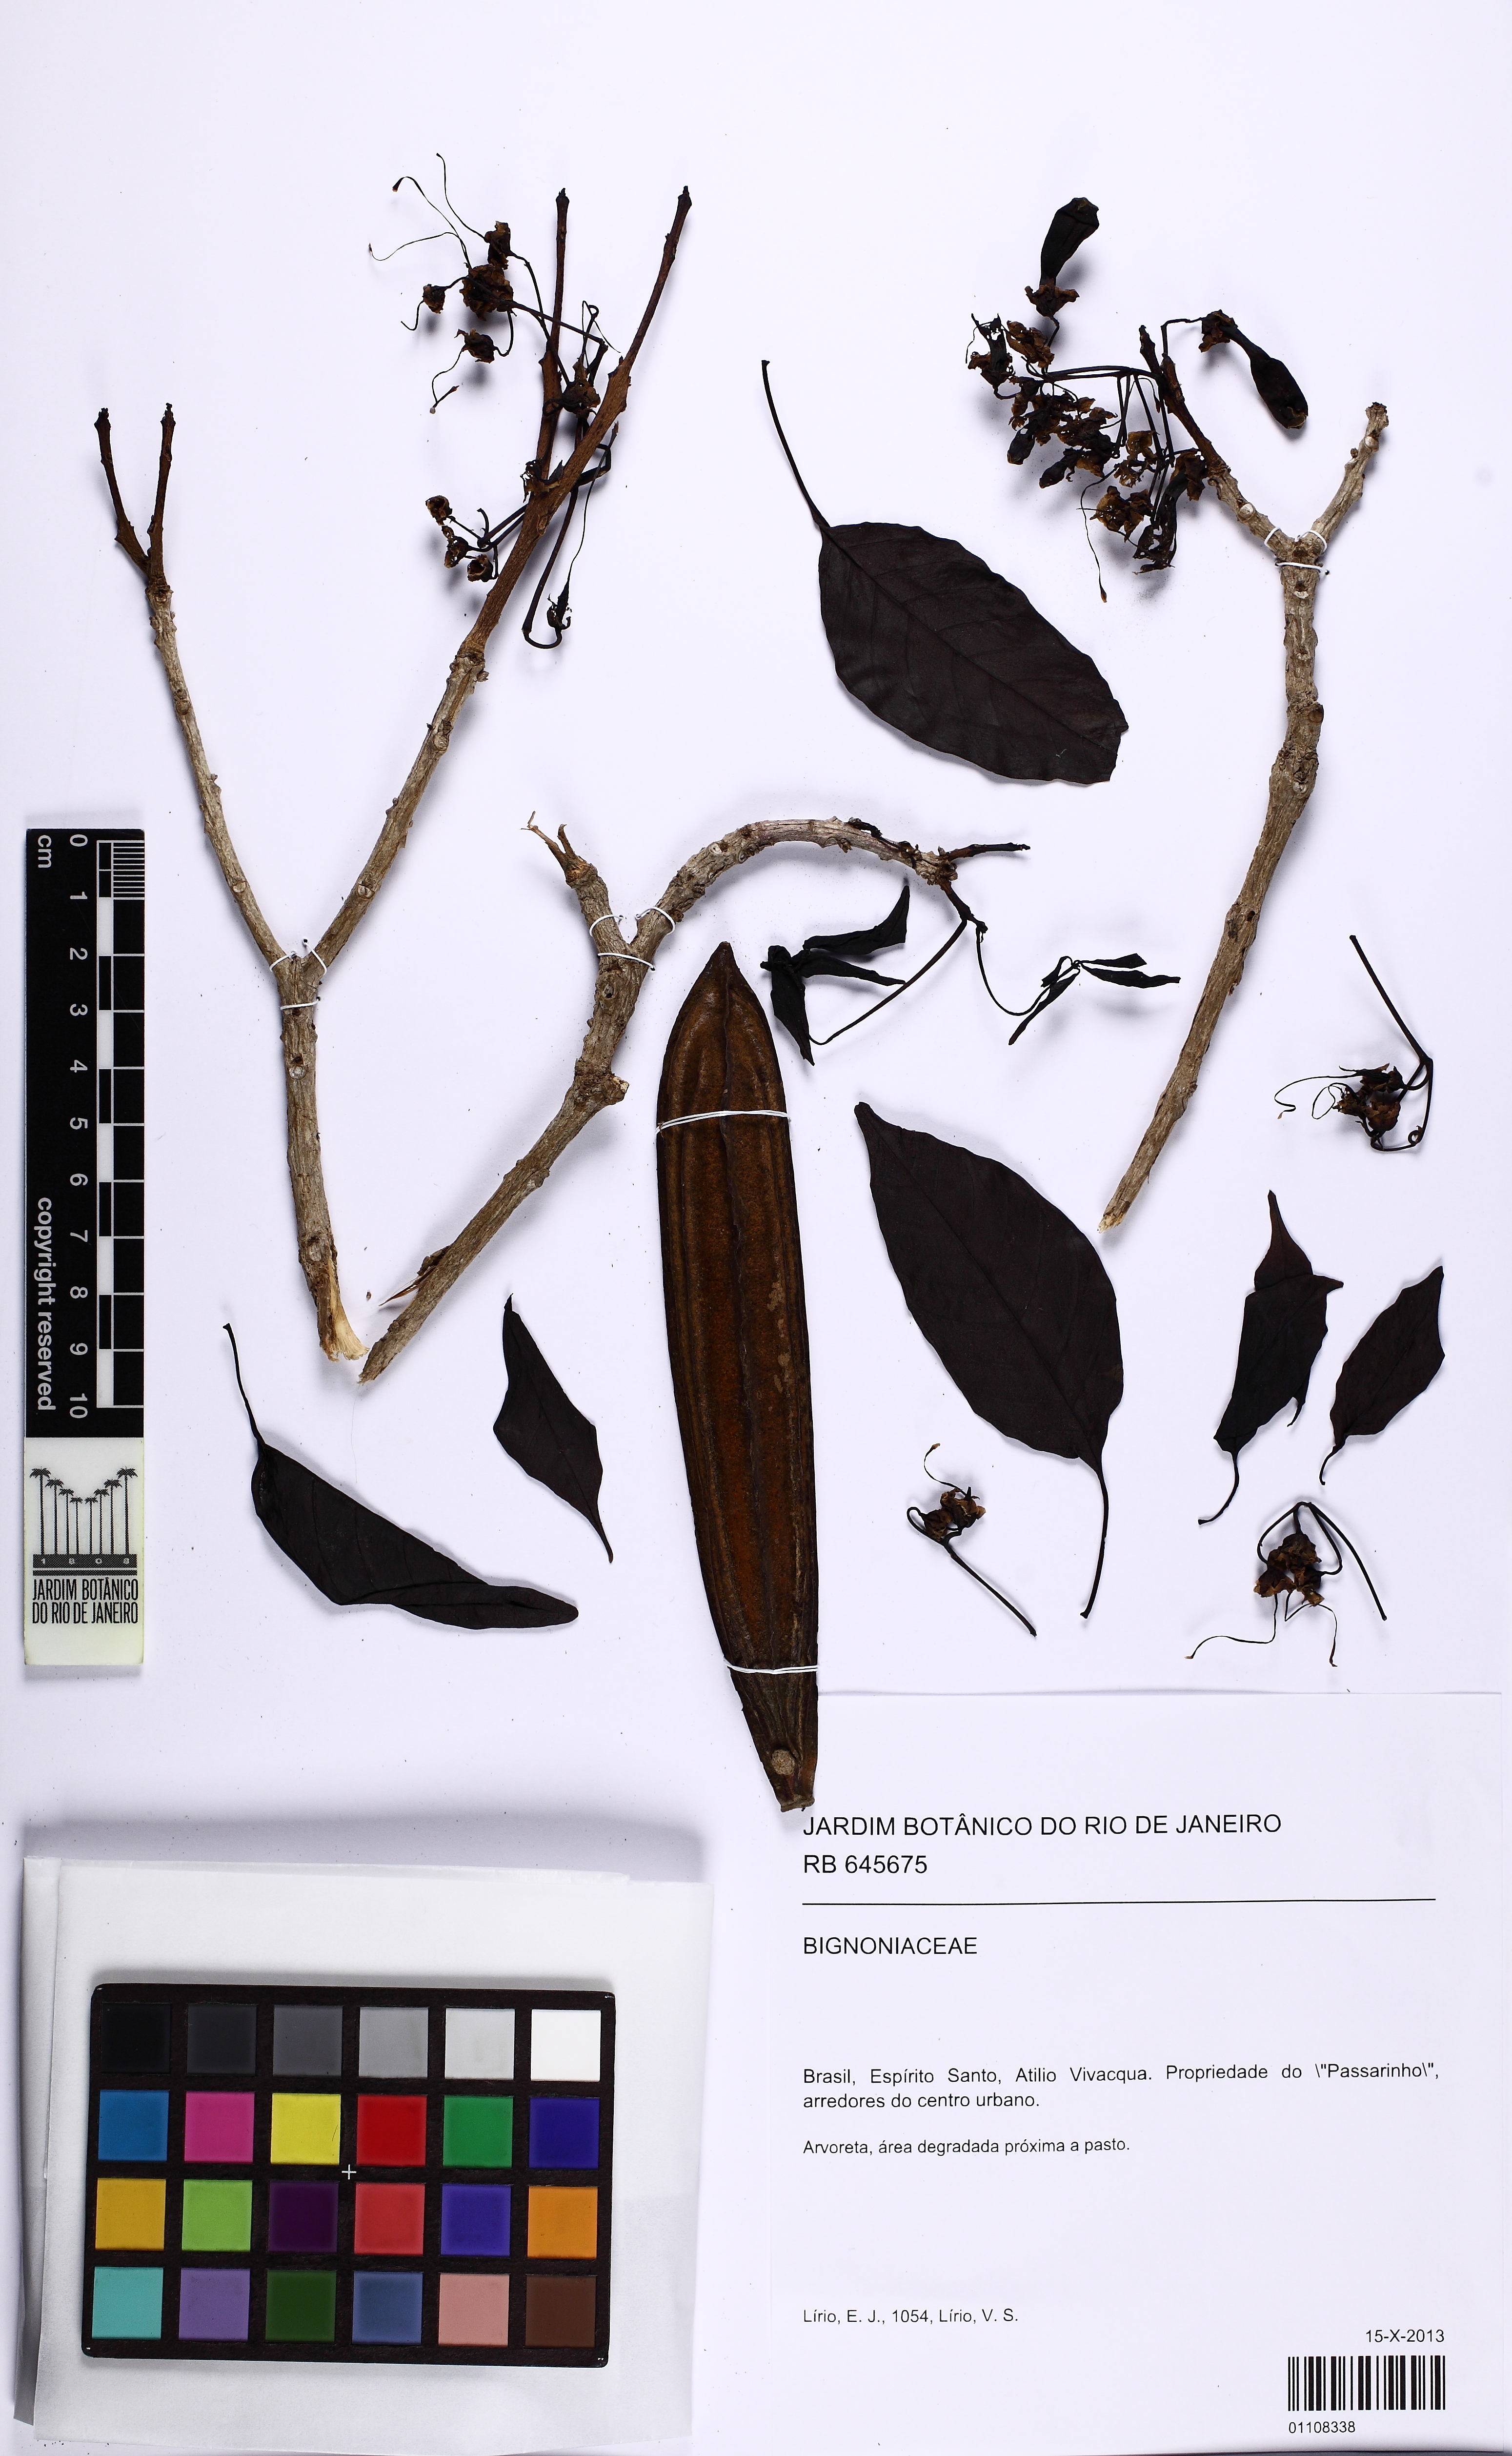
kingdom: Plantae
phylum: Tracheophyta
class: Magnoliopsida
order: Lamiales
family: Bignoniaceae
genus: Cybistax
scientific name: Cybistax antisyphilitica
